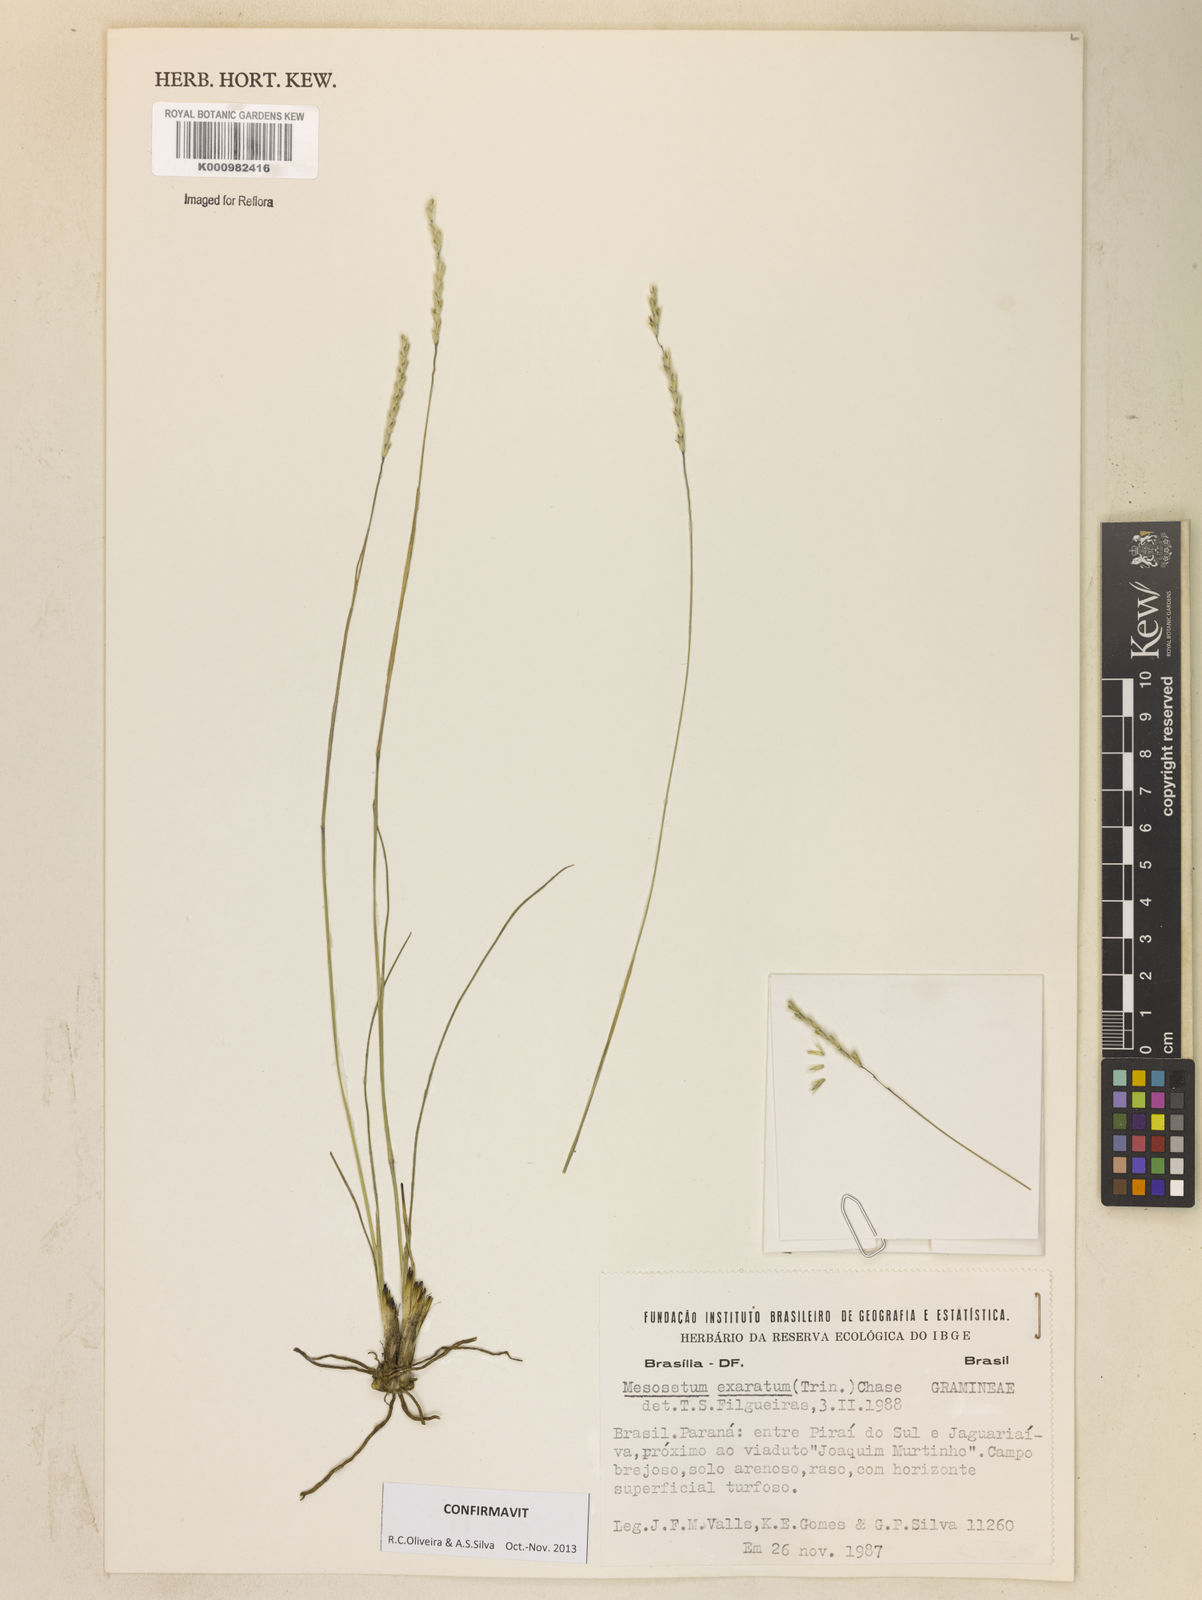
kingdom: Plantae
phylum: Tracheophyta
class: Liliopsida
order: Poales
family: Poaceae
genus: Mesosetum
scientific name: Mesosetum exaratum
